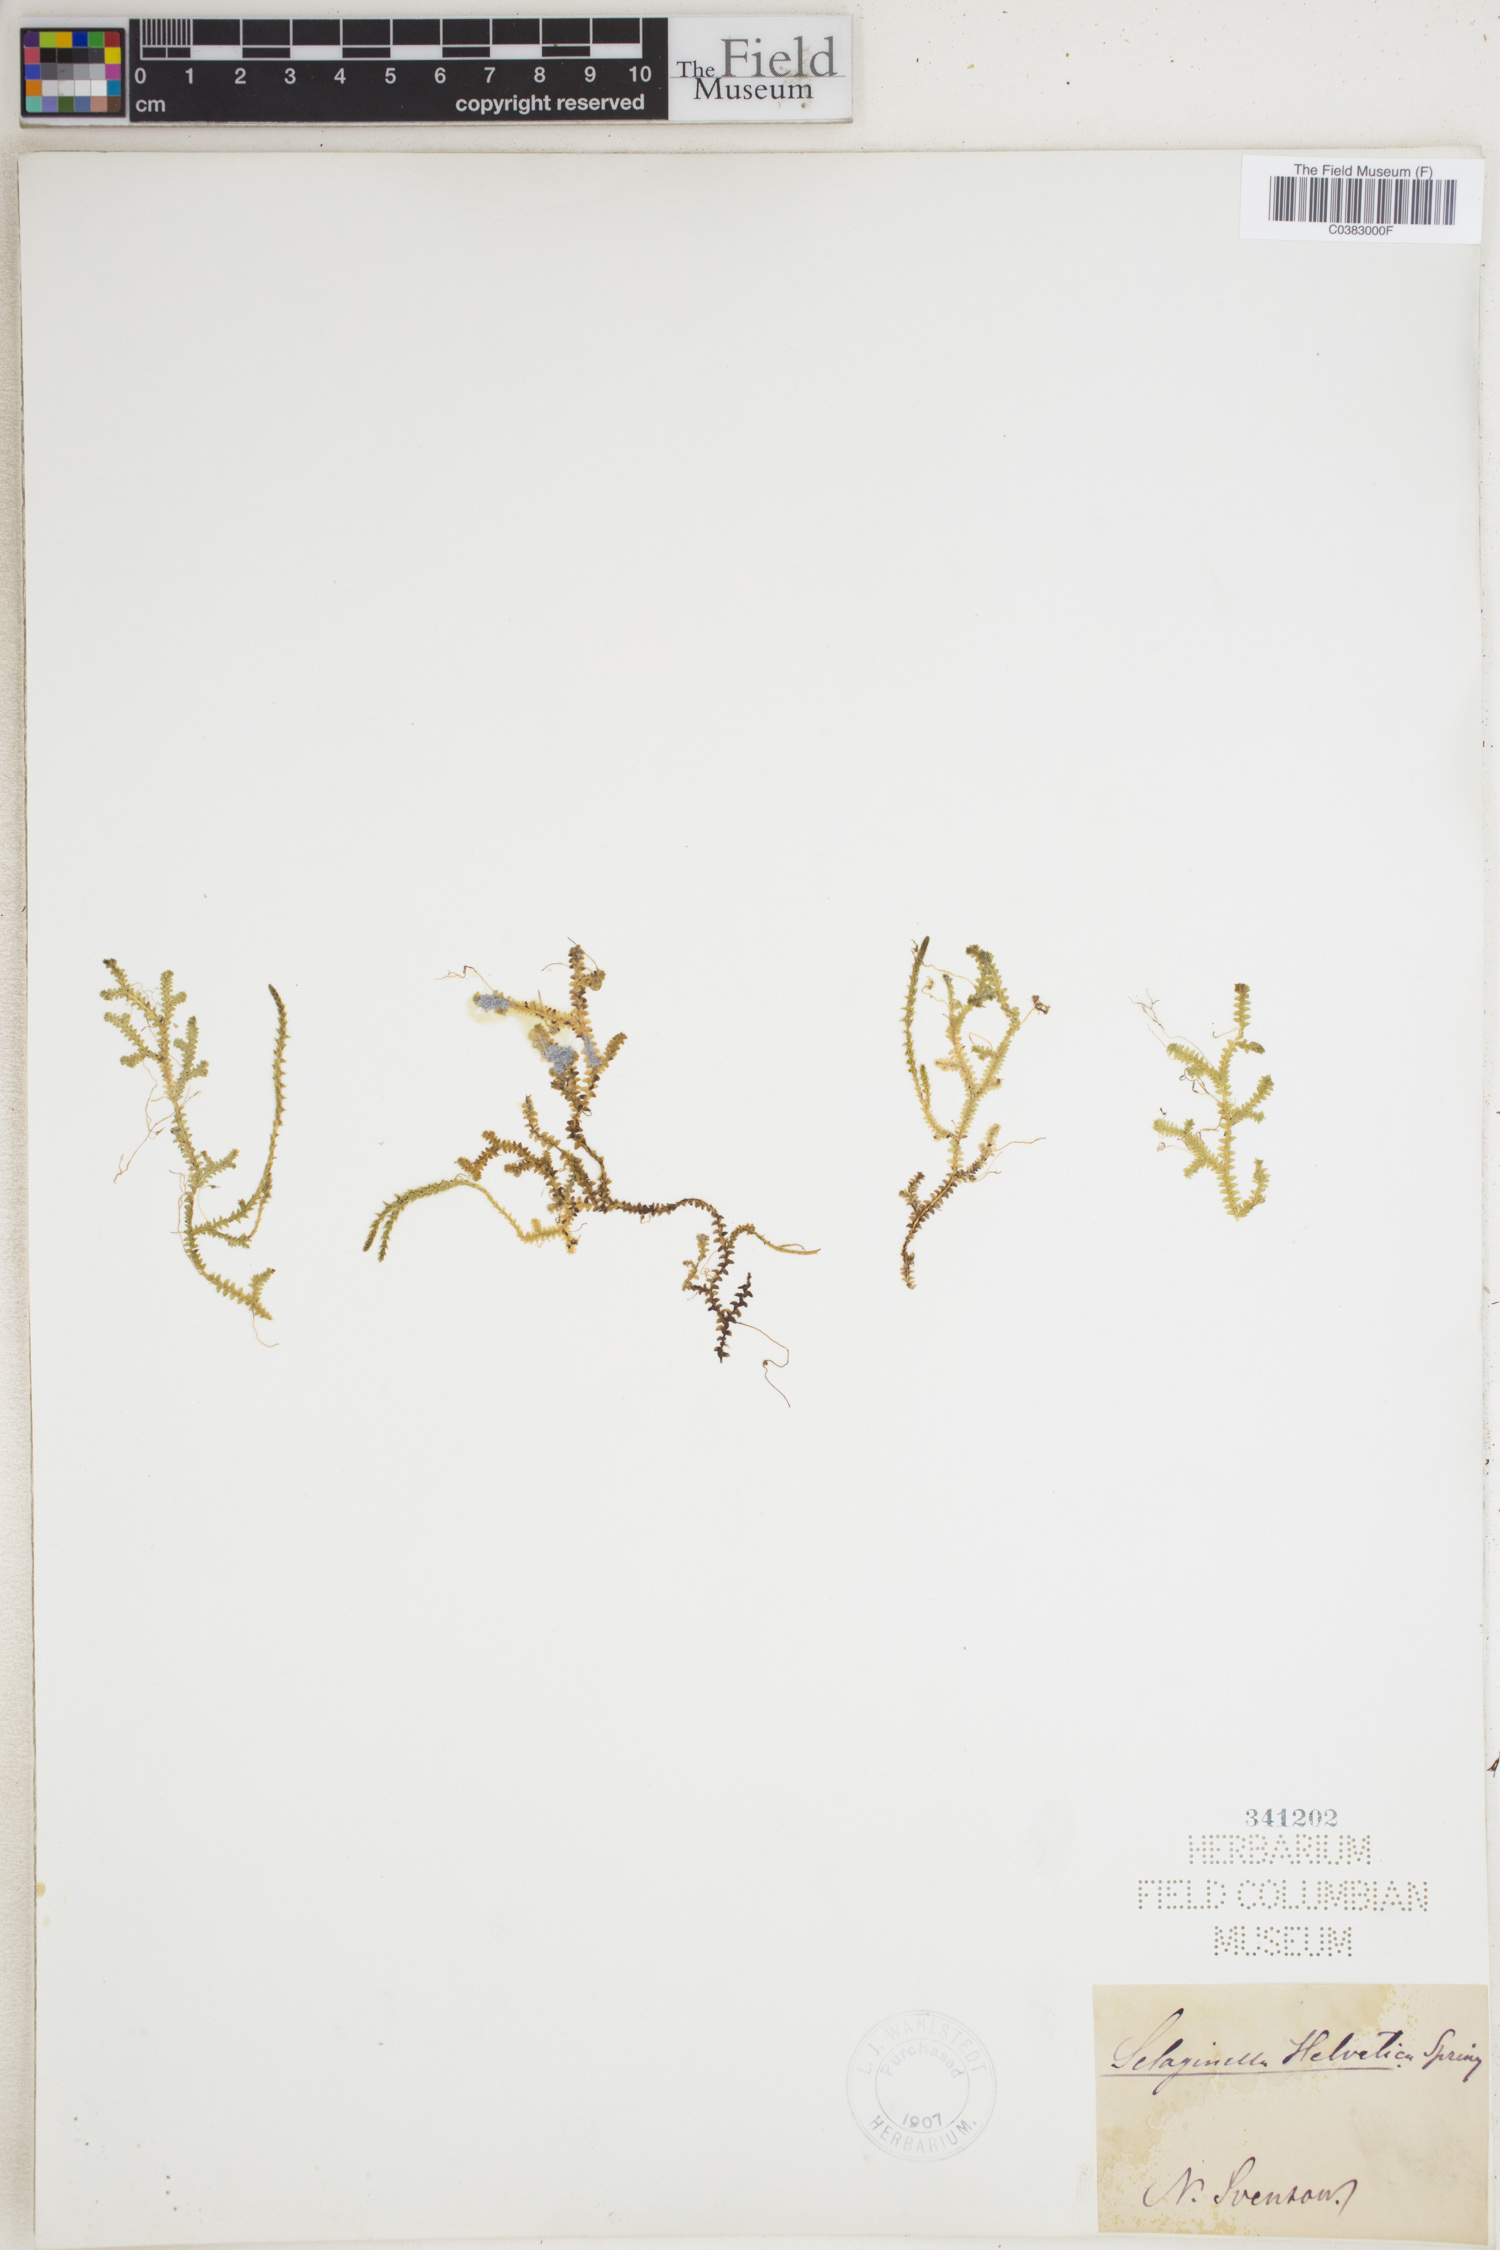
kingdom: Plantae
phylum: Tracheophyta
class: Lycopodiopsida
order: Selaginellales
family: Selaginellaceae
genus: Selaginella
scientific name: Selaginella helvetica
